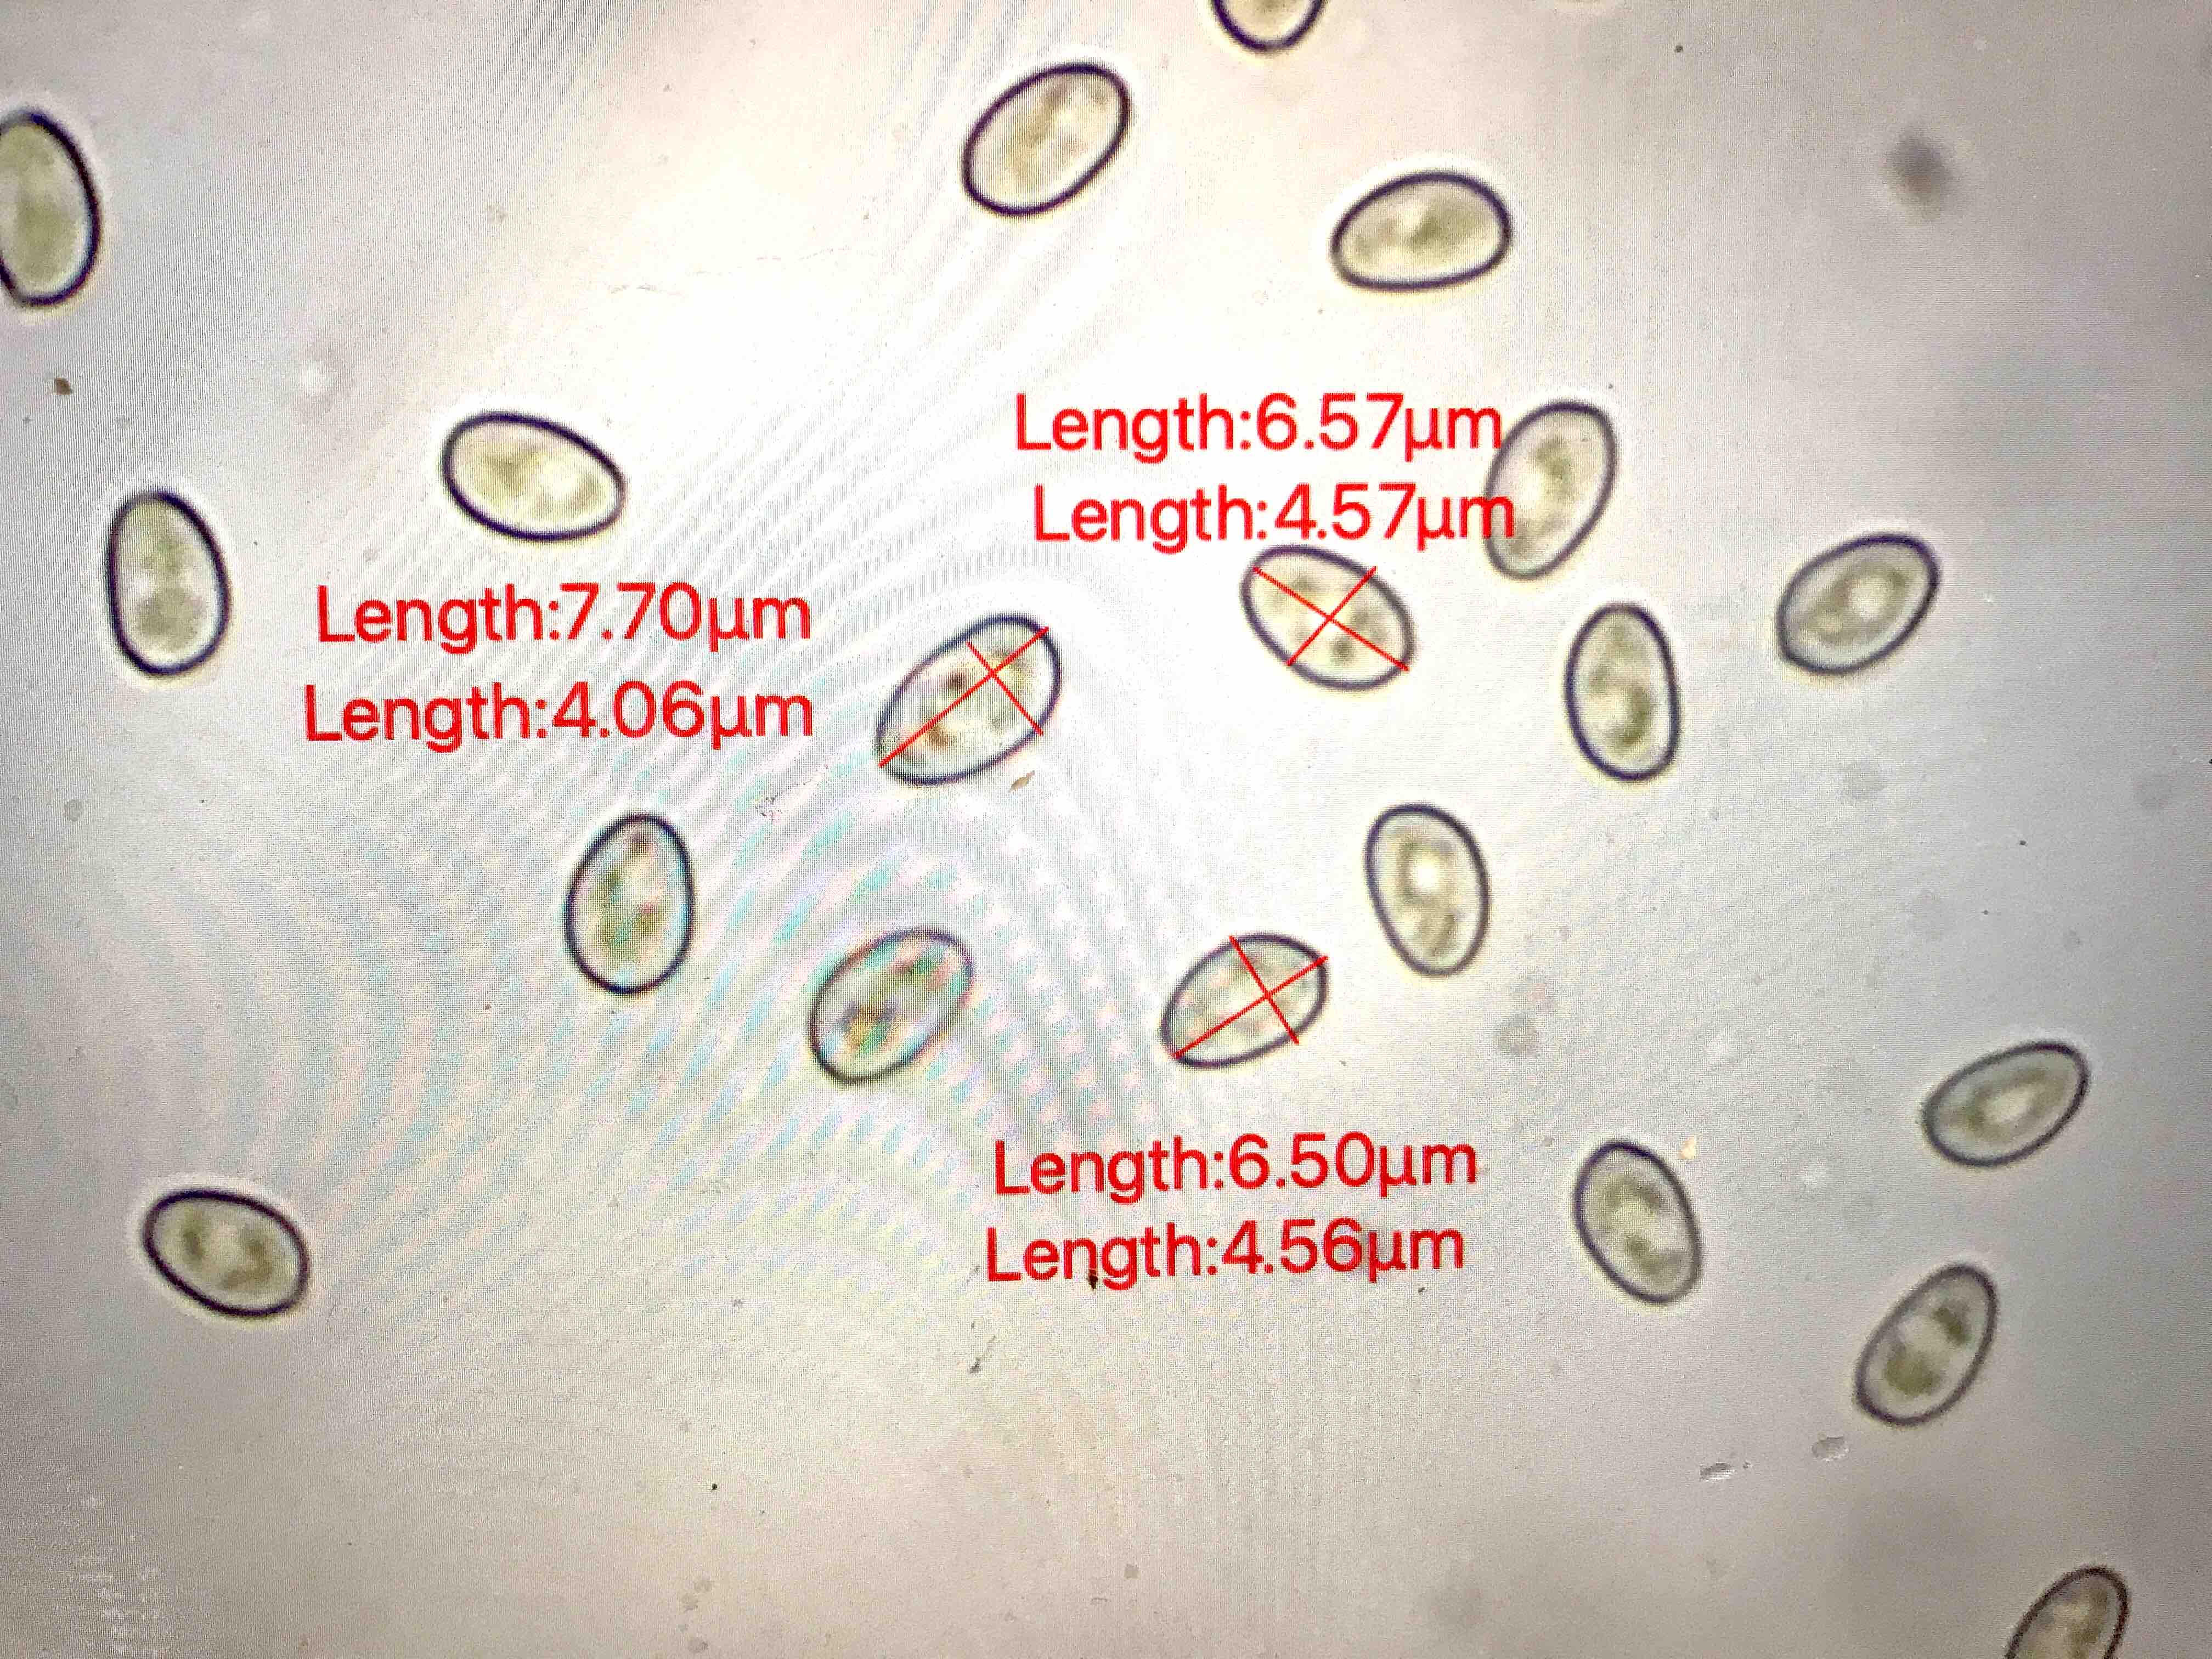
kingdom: Fungi
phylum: Basidiomycota
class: Agaricomycetes
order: Agaricales
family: Strophariaceae
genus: Pholiota
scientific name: Pholiota gummosa
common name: grøngul skælhat
